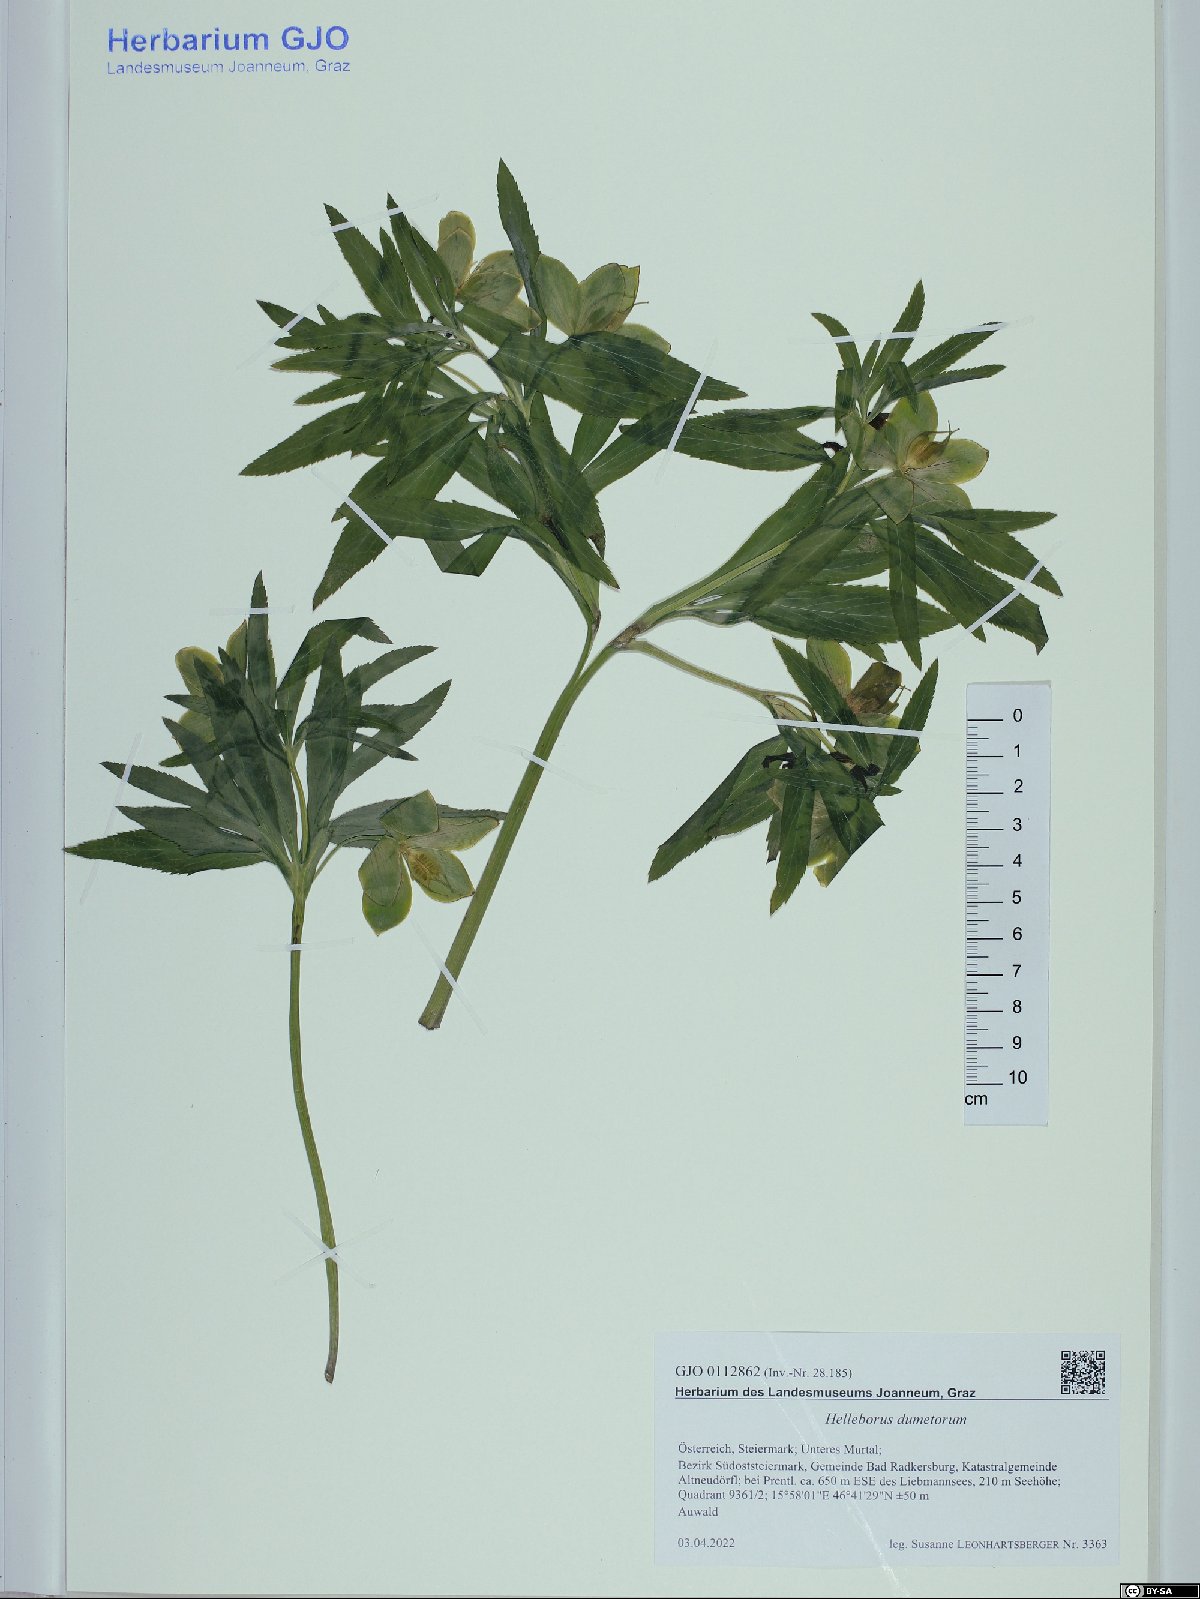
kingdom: Plantae
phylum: Tracheophyta
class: Magnoliopsida
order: Ranunculales
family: Ranunculaceae
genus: Helleborus
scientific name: Helleborus dumetorum
